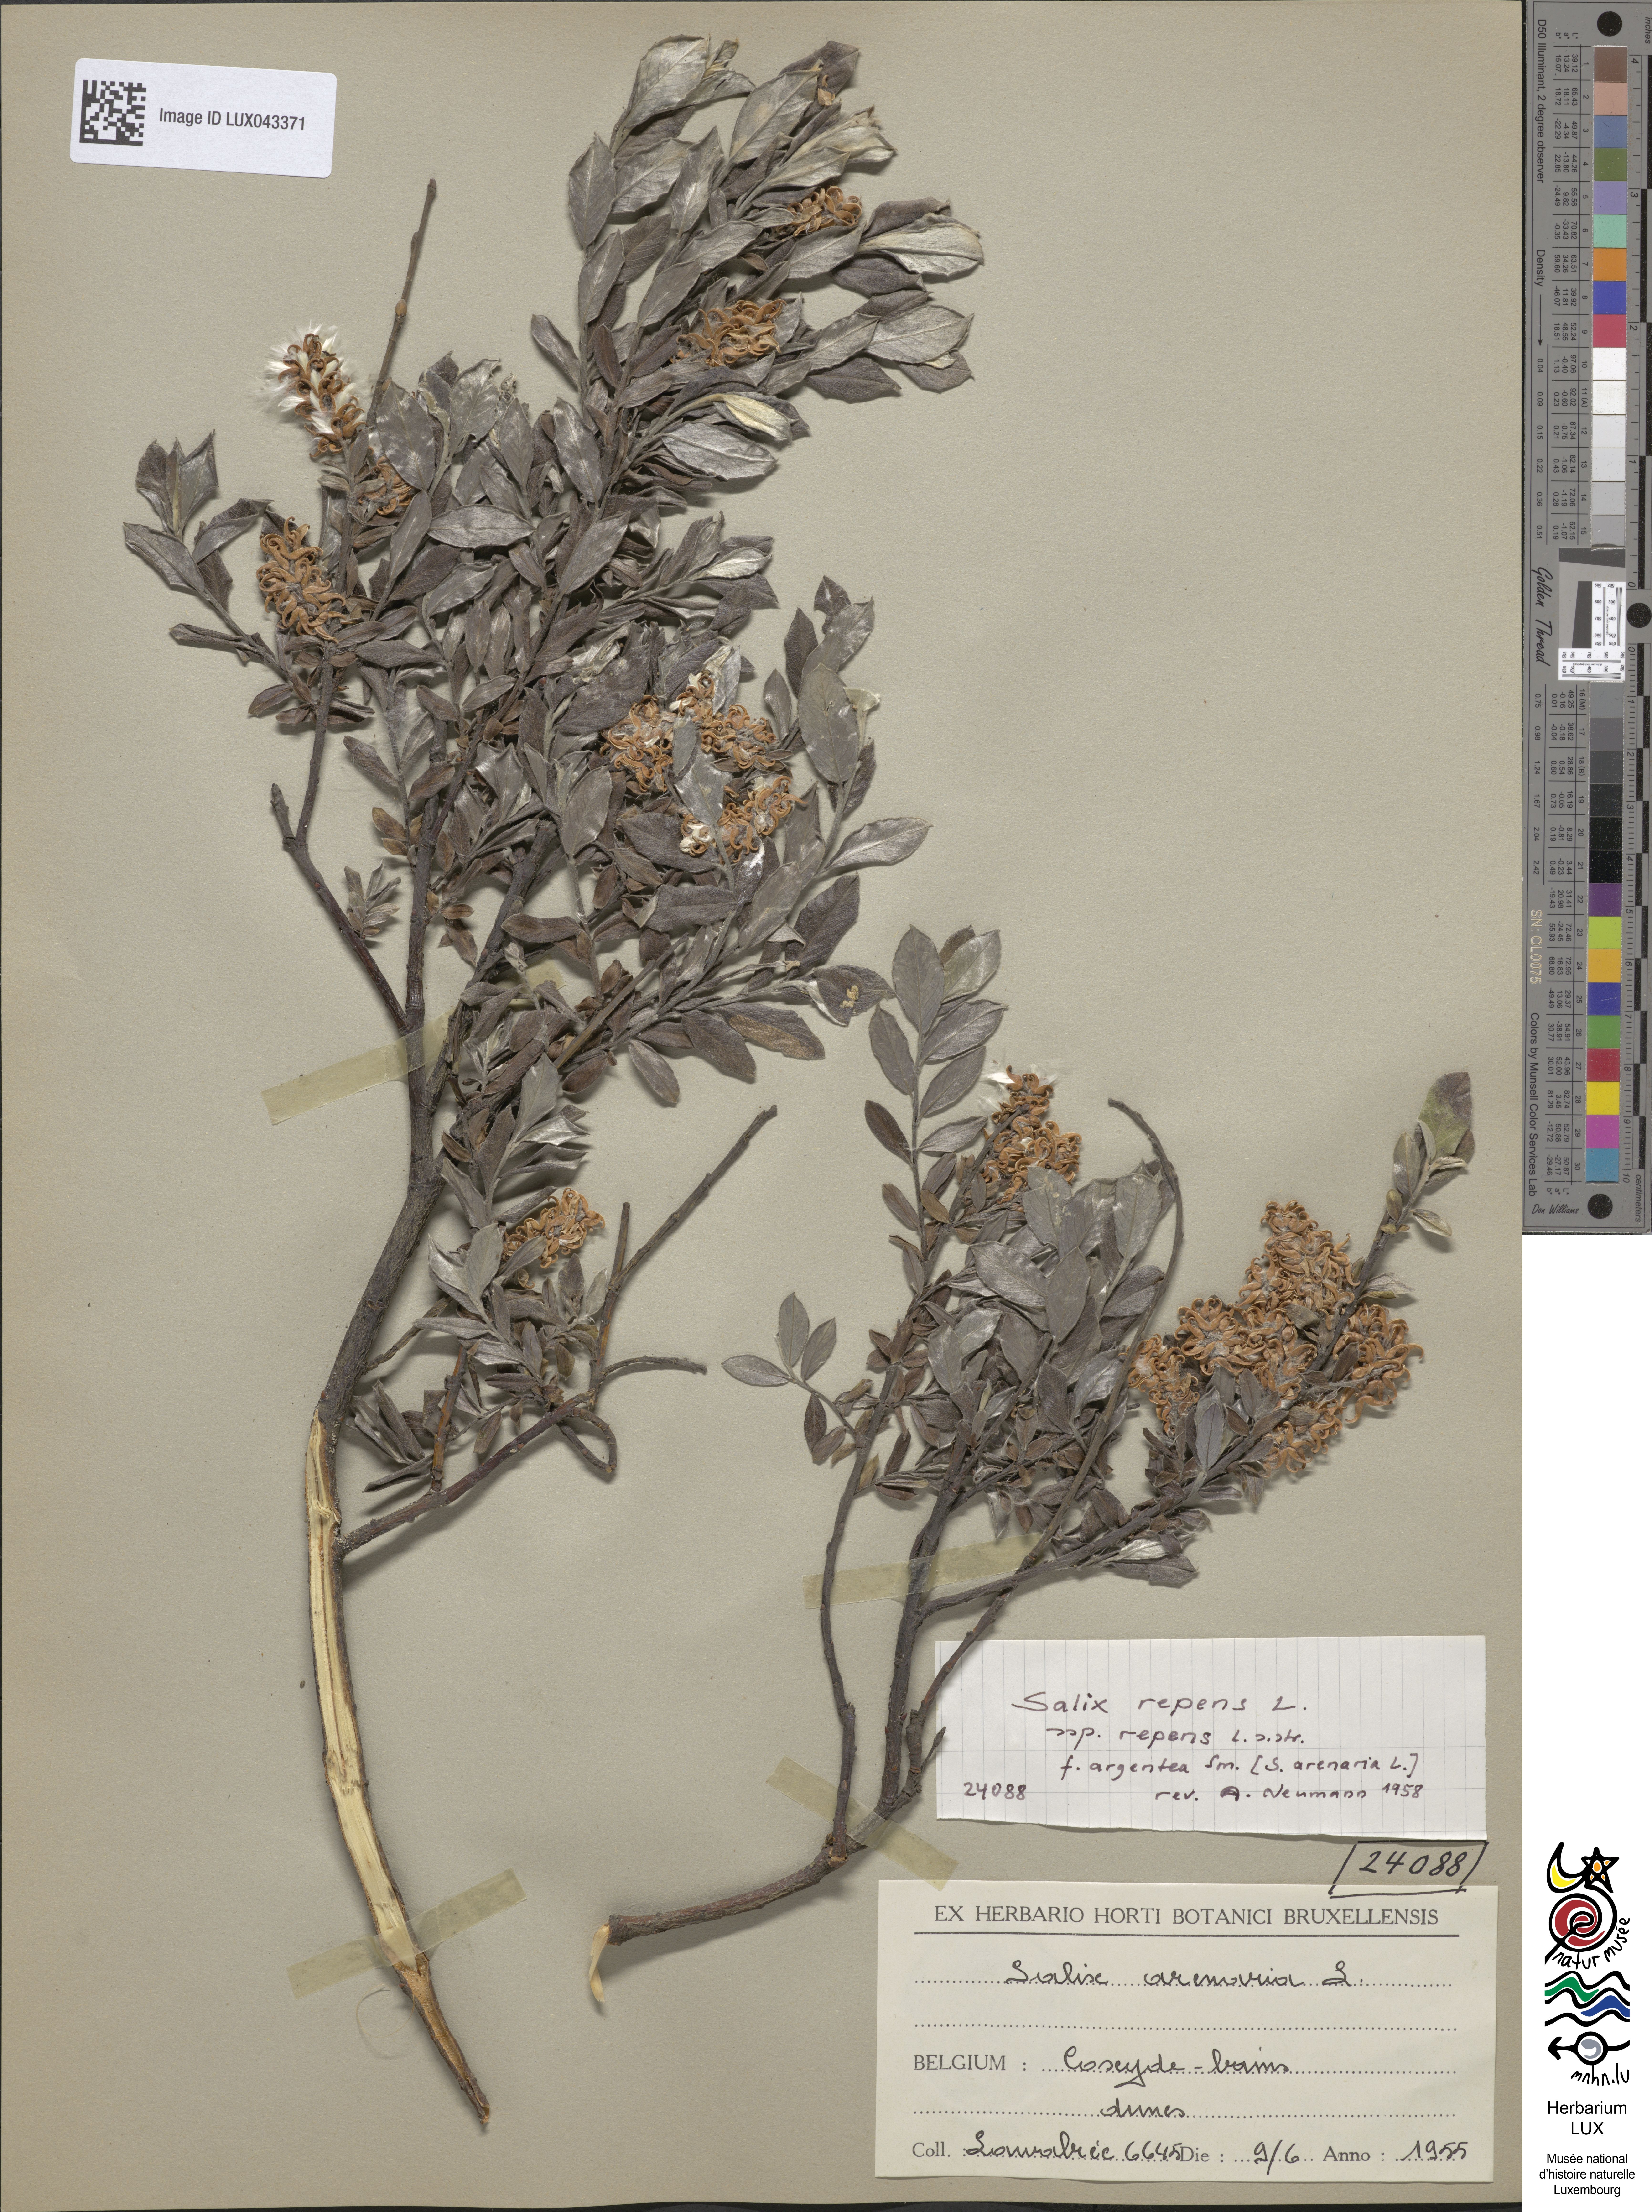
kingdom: Plantae
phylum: Tracheophyta
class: Magnoliopsida
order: Malpighiales
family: Salicaceae
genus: Salix
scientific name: Salix repens
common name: Creeping willow
